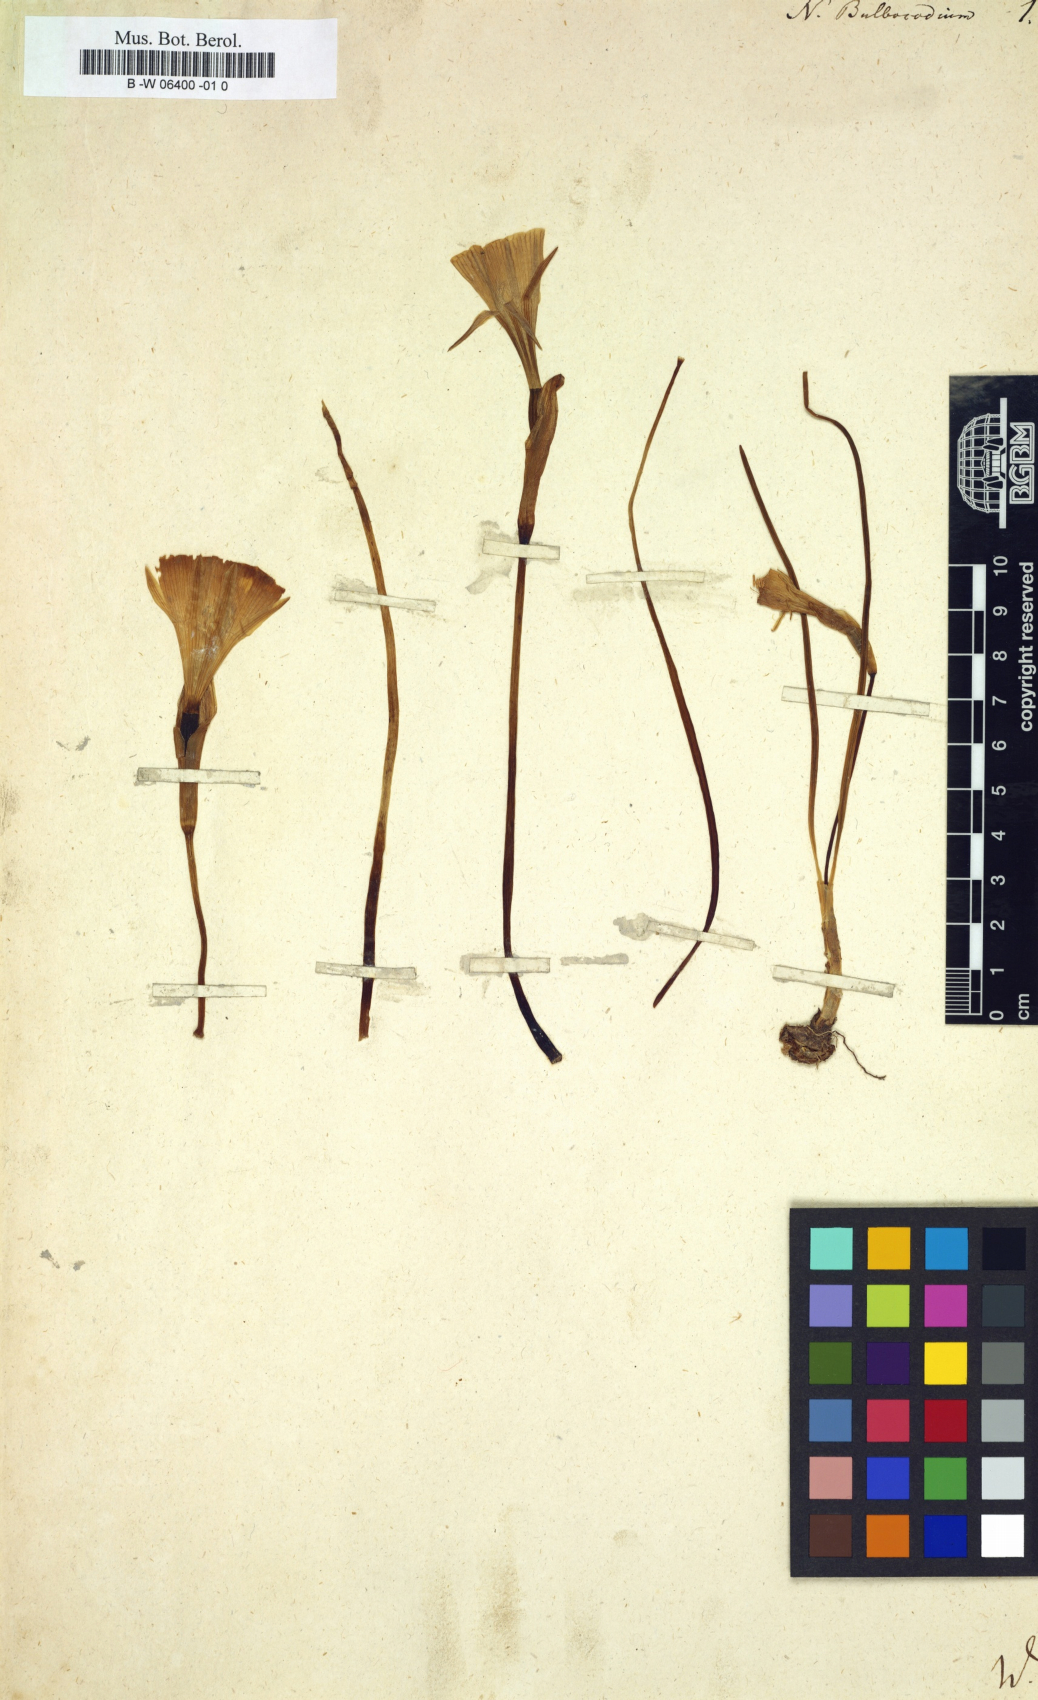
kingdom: Plantae
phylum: Tracheophyta
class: Liliopsida
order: Asparagales
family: Amaryllidaceae
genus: Narcissus
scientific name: Narcissus bulbocodium
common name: Hoop-petticoat daffodil
